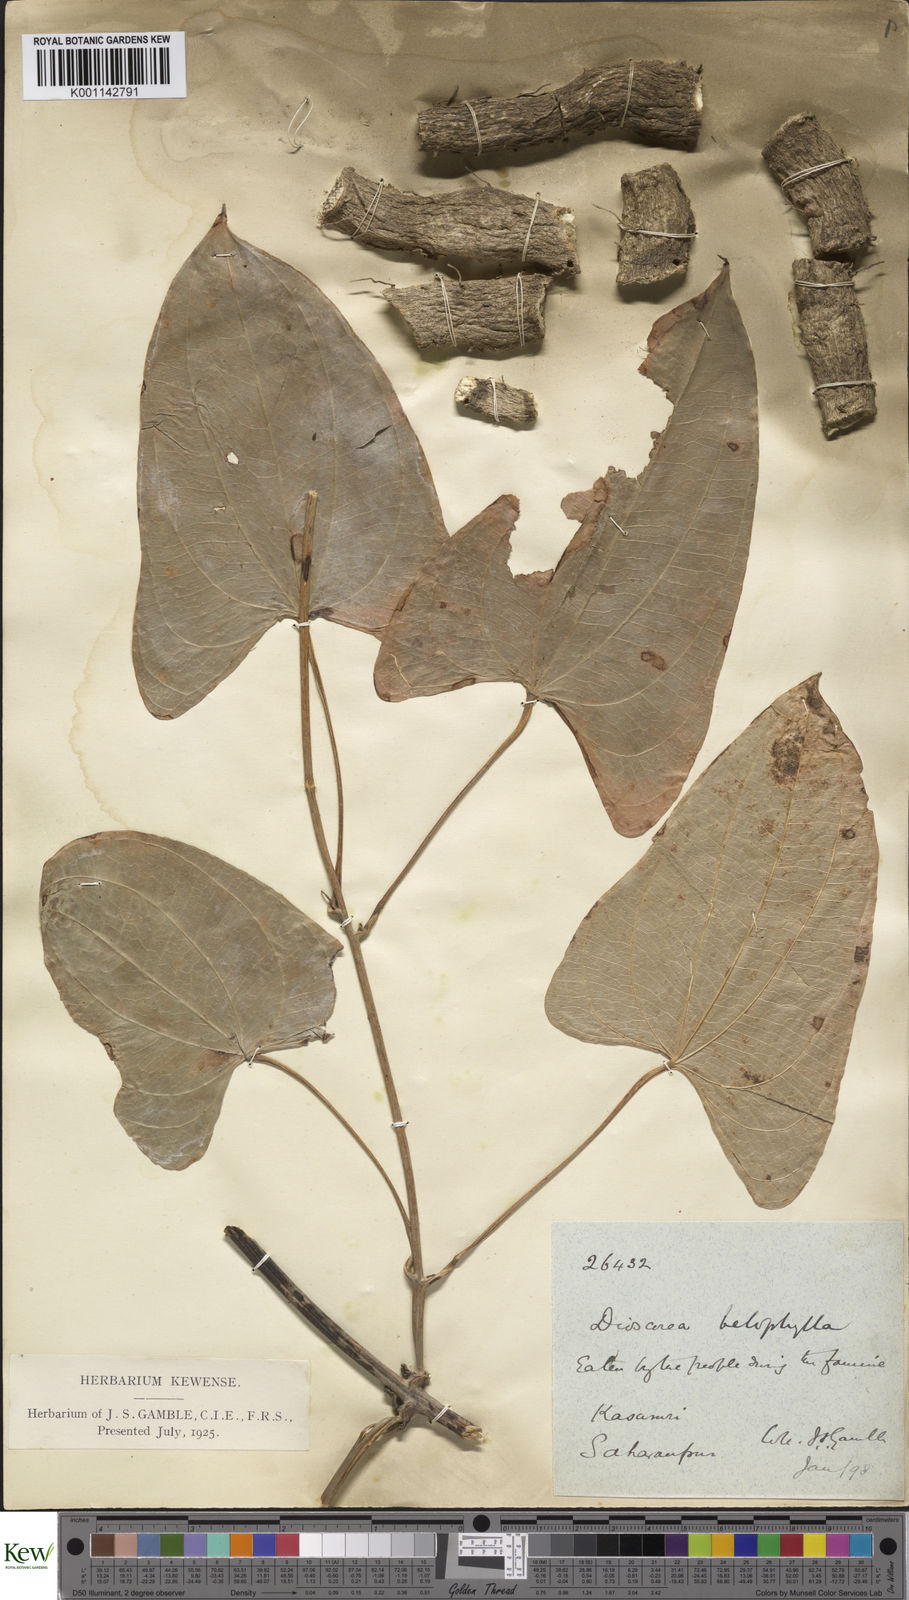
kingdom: Plantae
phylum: Tracheophyta
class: Liliopsida
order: Dioscoreales
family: Dioscoreaceae
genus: Dioscorea
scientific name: Dioscorea belophylla
